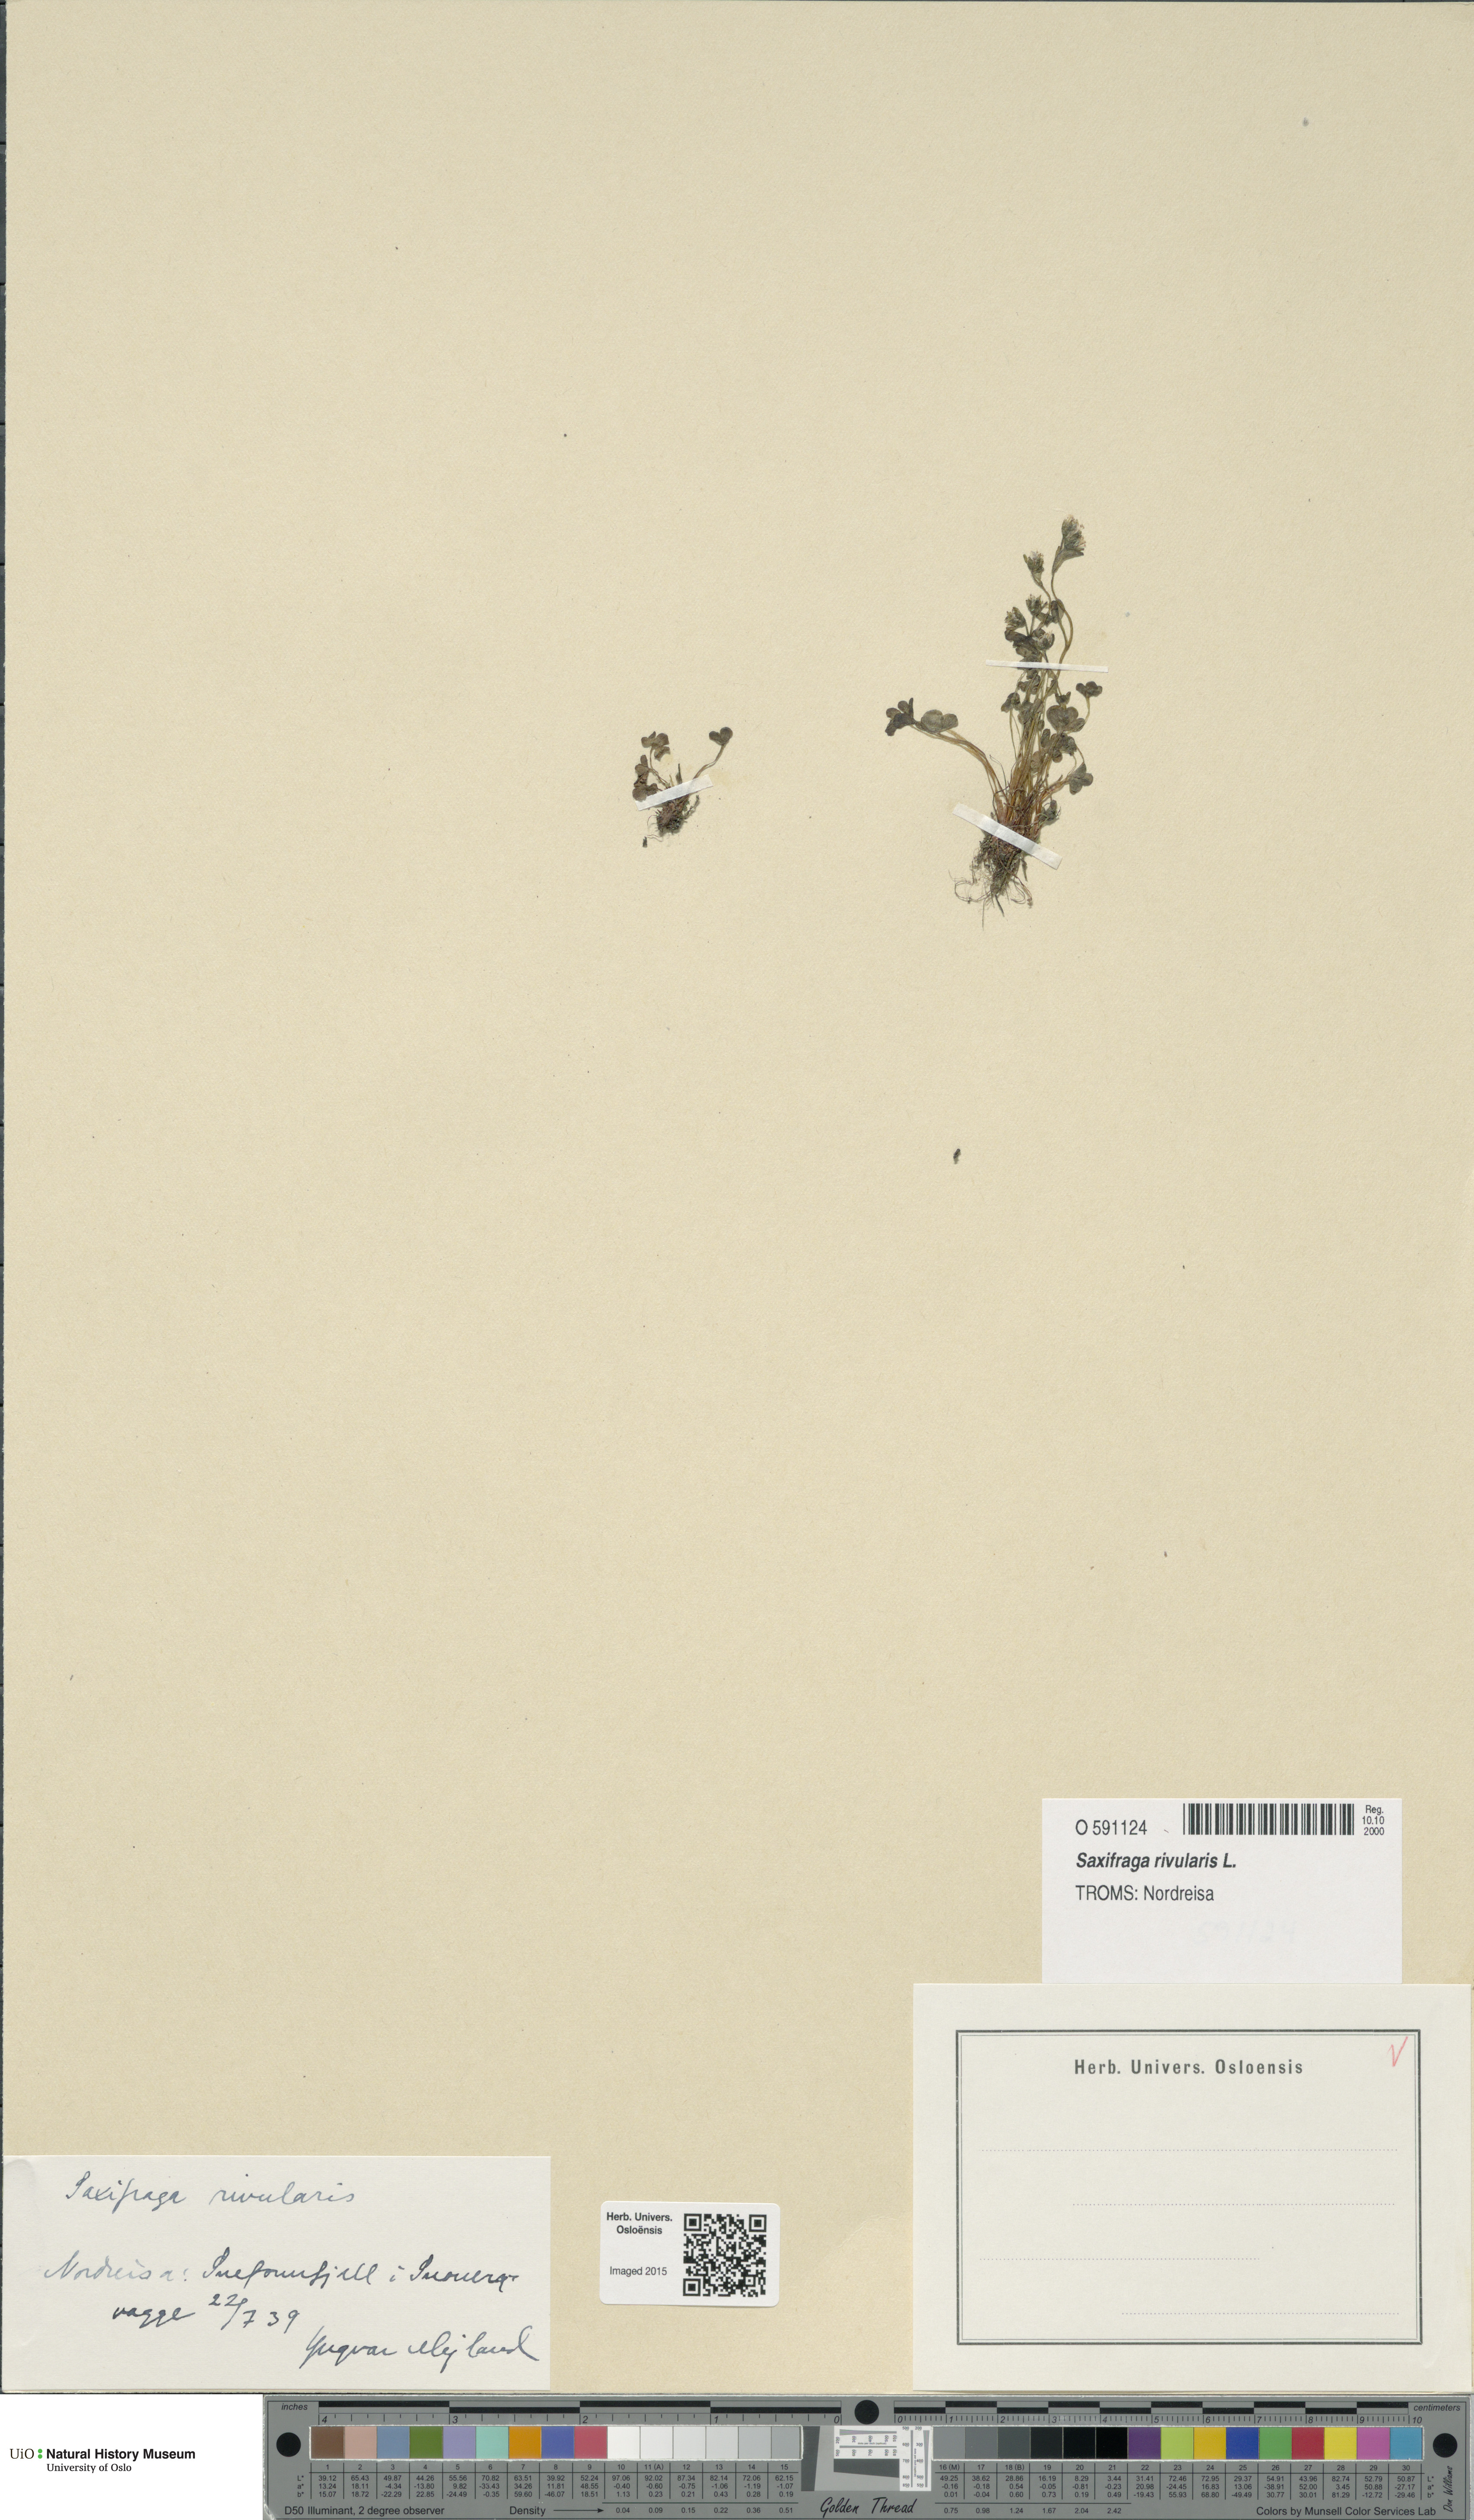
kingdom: Plantae
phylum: Tracheophyta
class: Magnoliopsida
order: Saxifragales
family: Saxifragaceae
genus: Saxifraga
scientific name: Saxifraga rivularis
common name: Highland saxifrage
